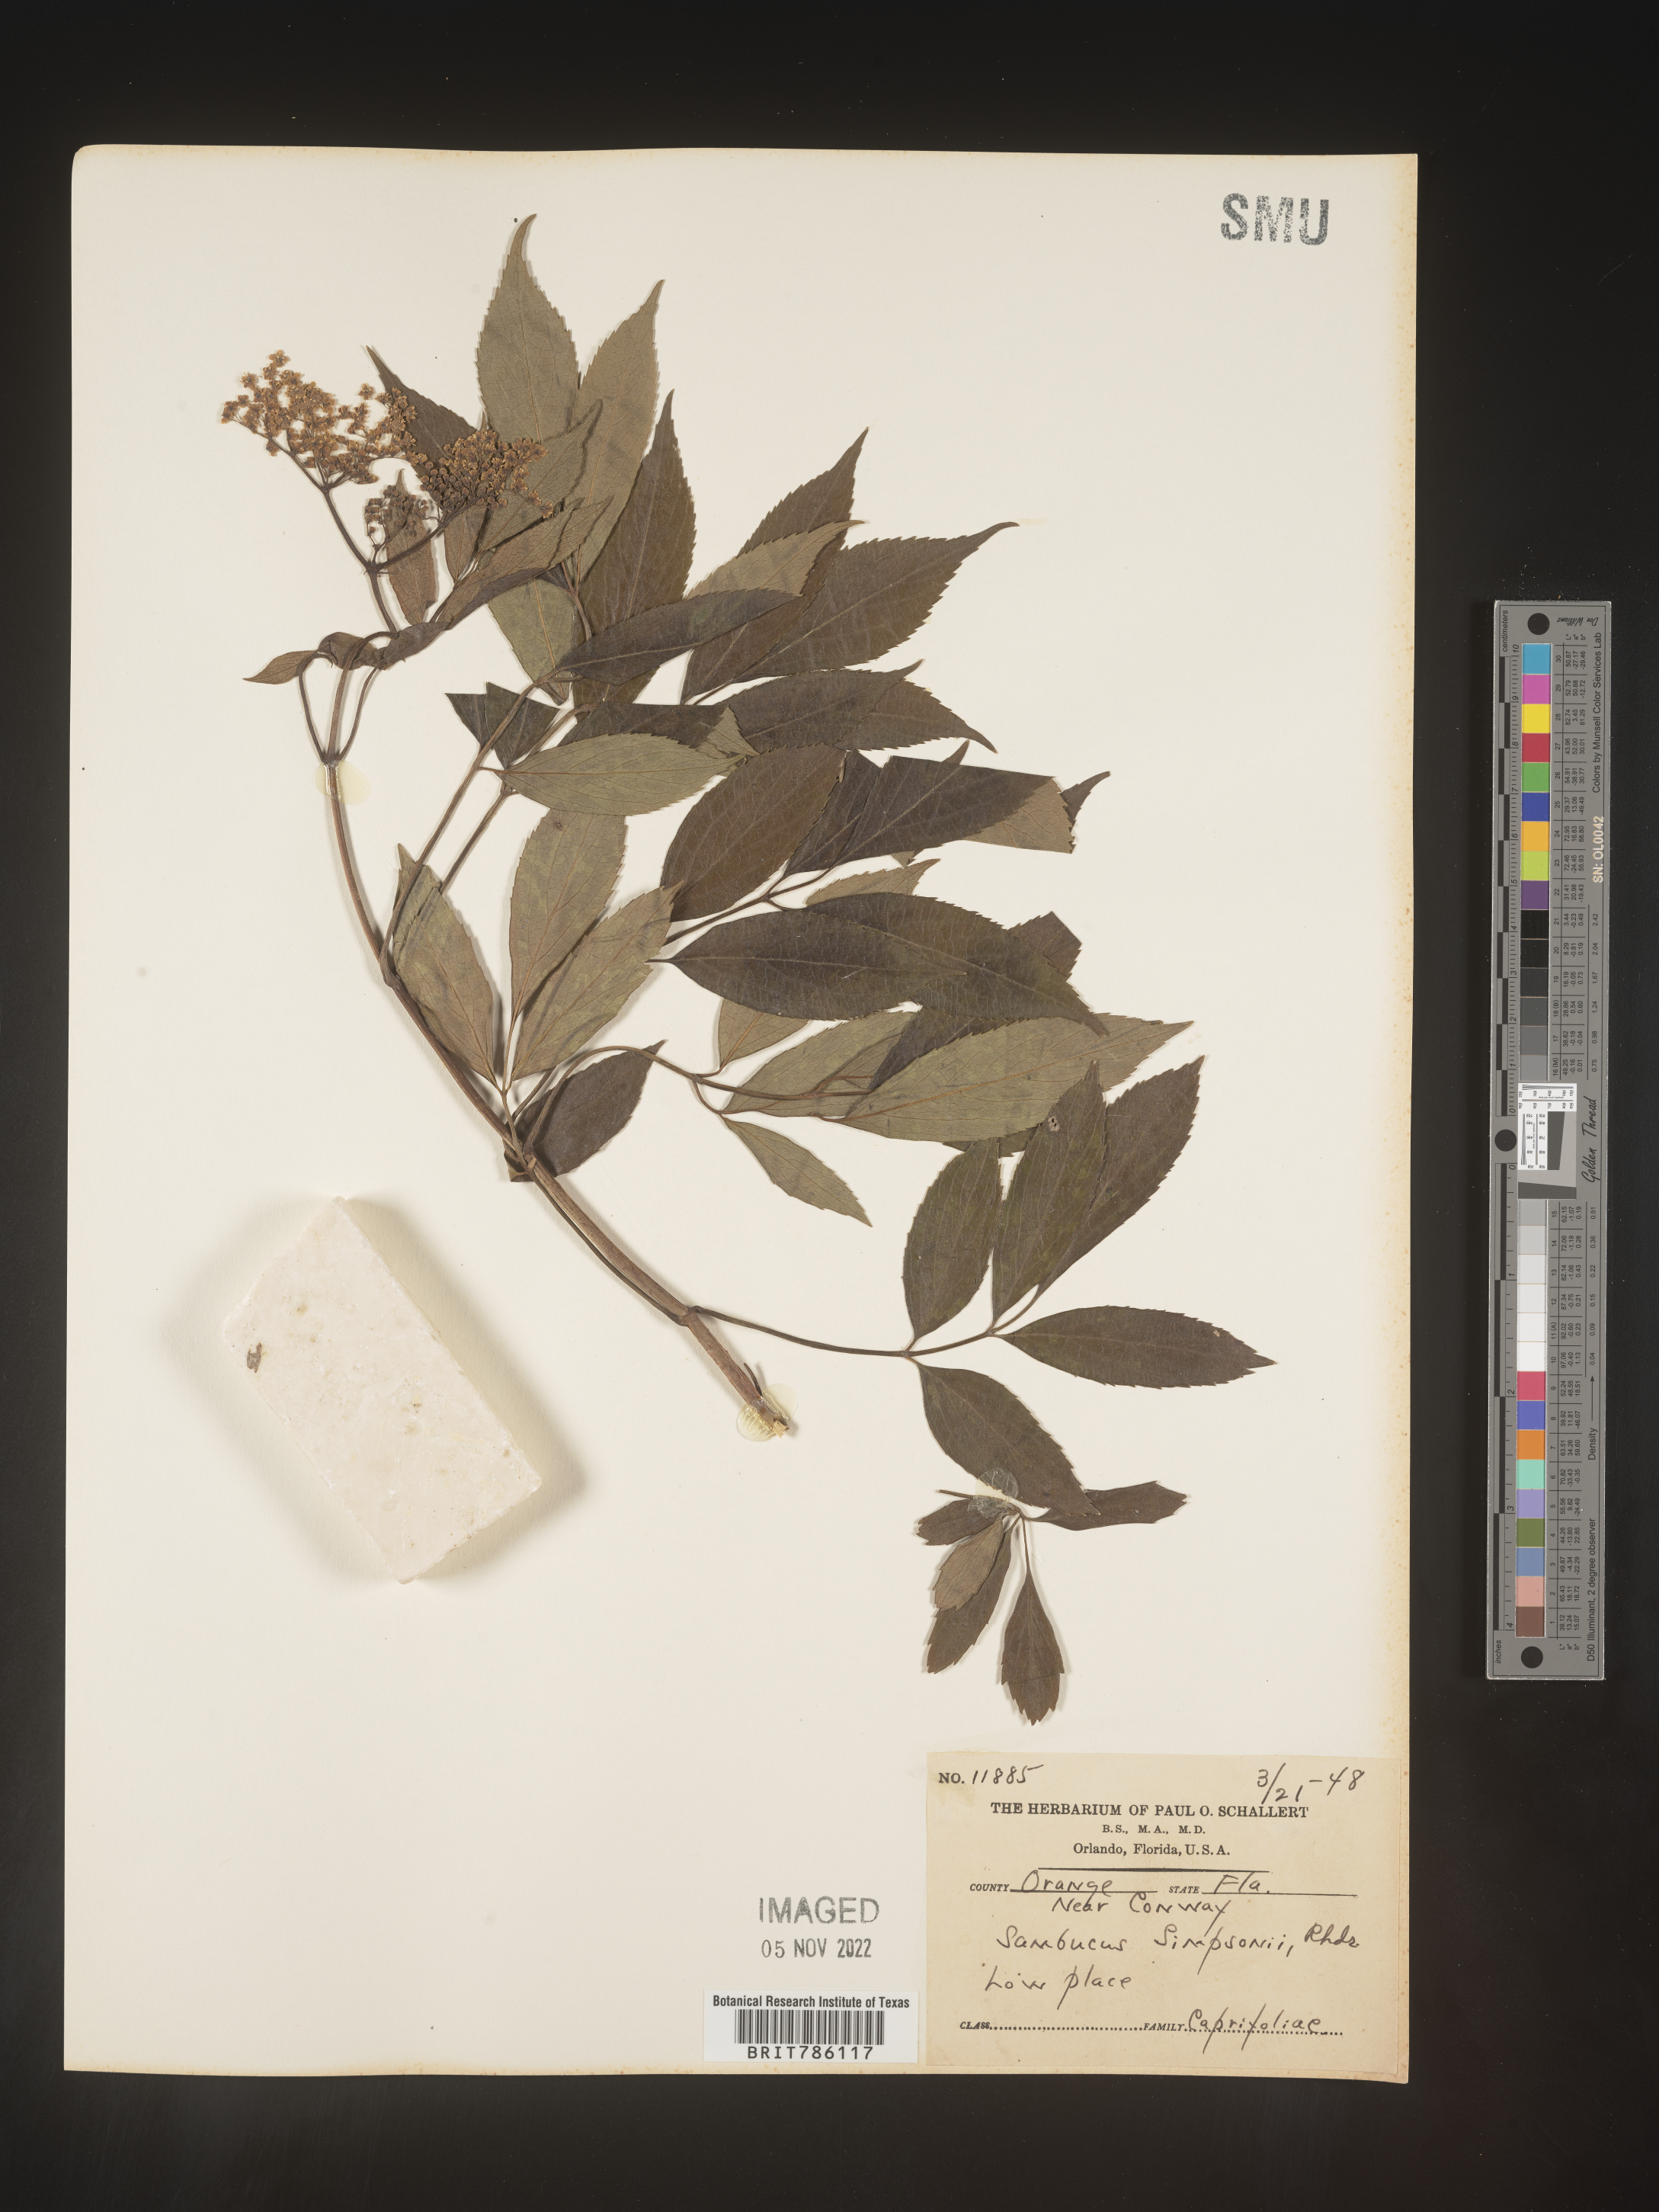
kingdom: Plantae
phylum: Tracheophyta
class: Magnoliopsida
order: Dipsacales
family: Viburnaceae
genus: Sambucus
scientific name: Sambucus
